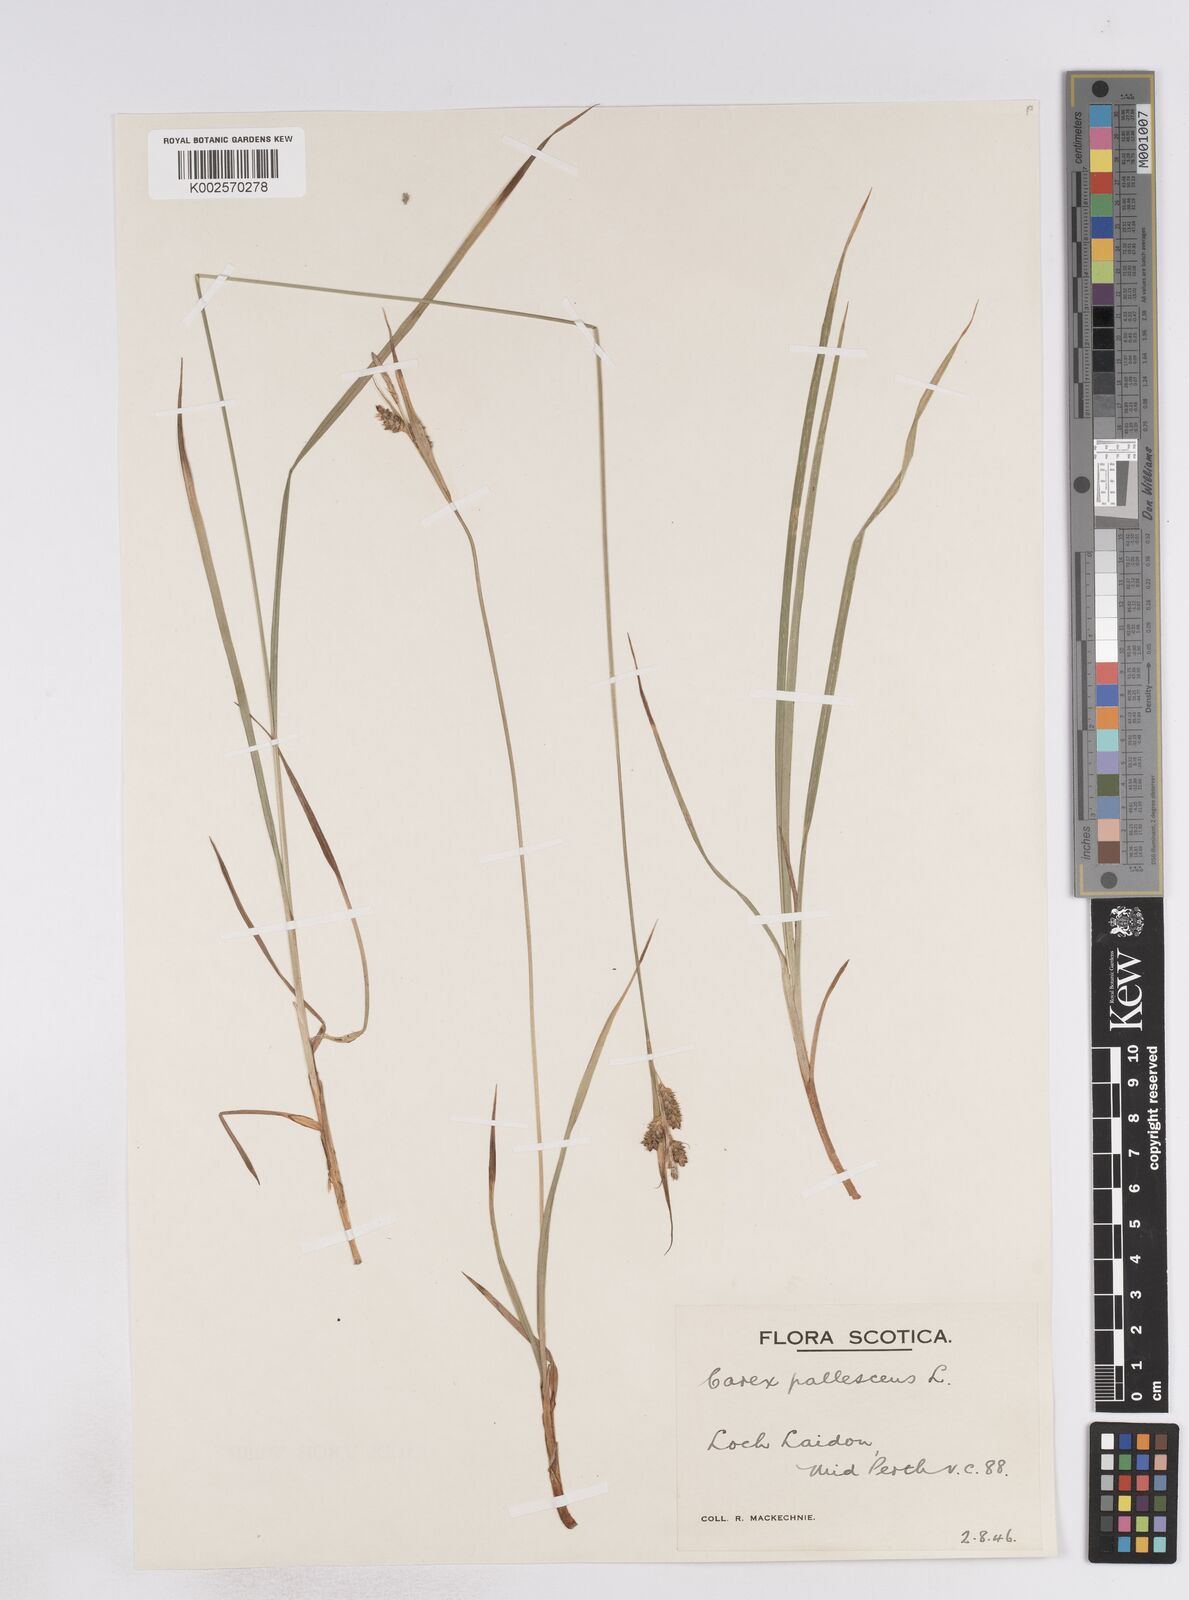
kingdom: Plantae
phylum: Tracheophyta
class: Liliopsida
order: Poales
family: Cyperaceae
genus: Carex
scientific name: Carex pallescens
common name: Pale sedge
